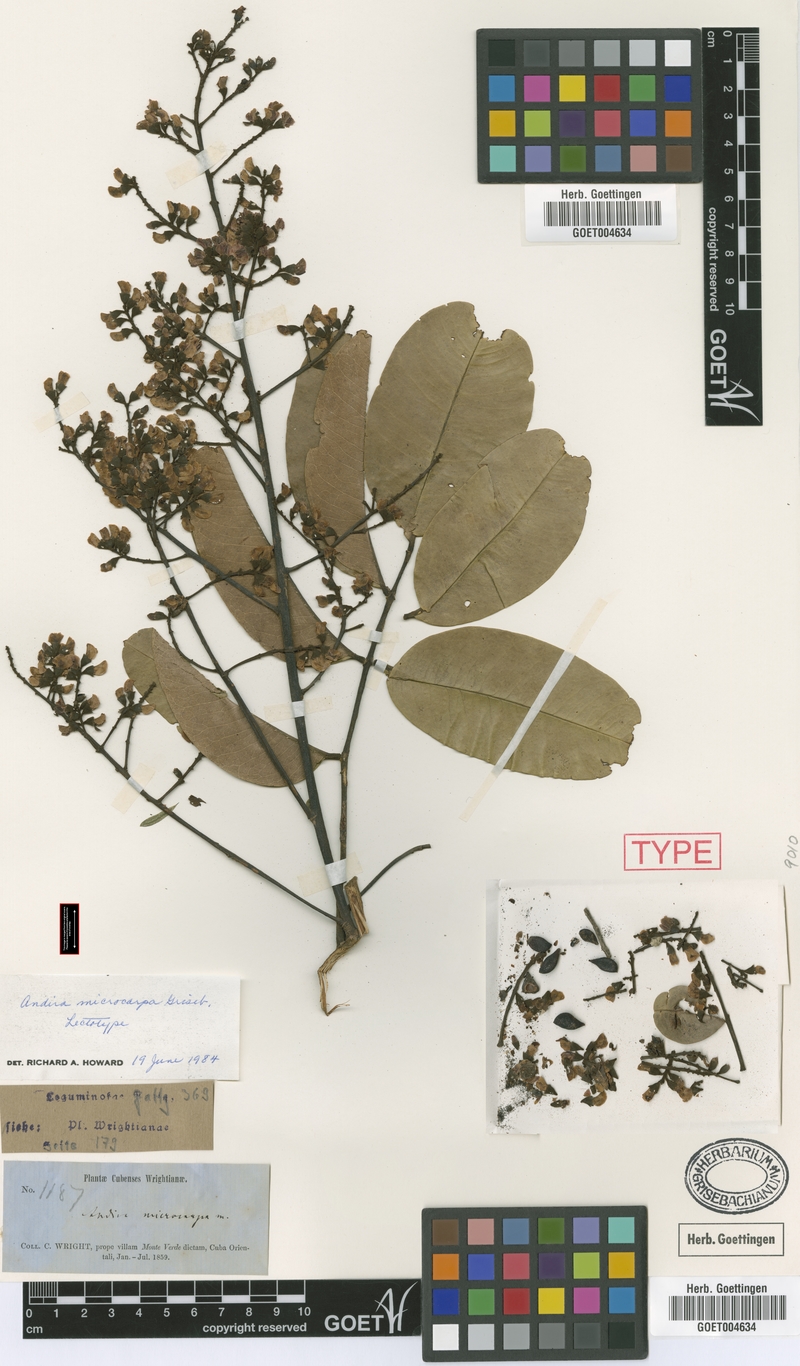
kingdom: Plantae
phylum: Tracheophyta
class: Magnoliopsida
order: Fabales
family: Fabaceae
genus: Andira
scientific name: Andira cubensis
